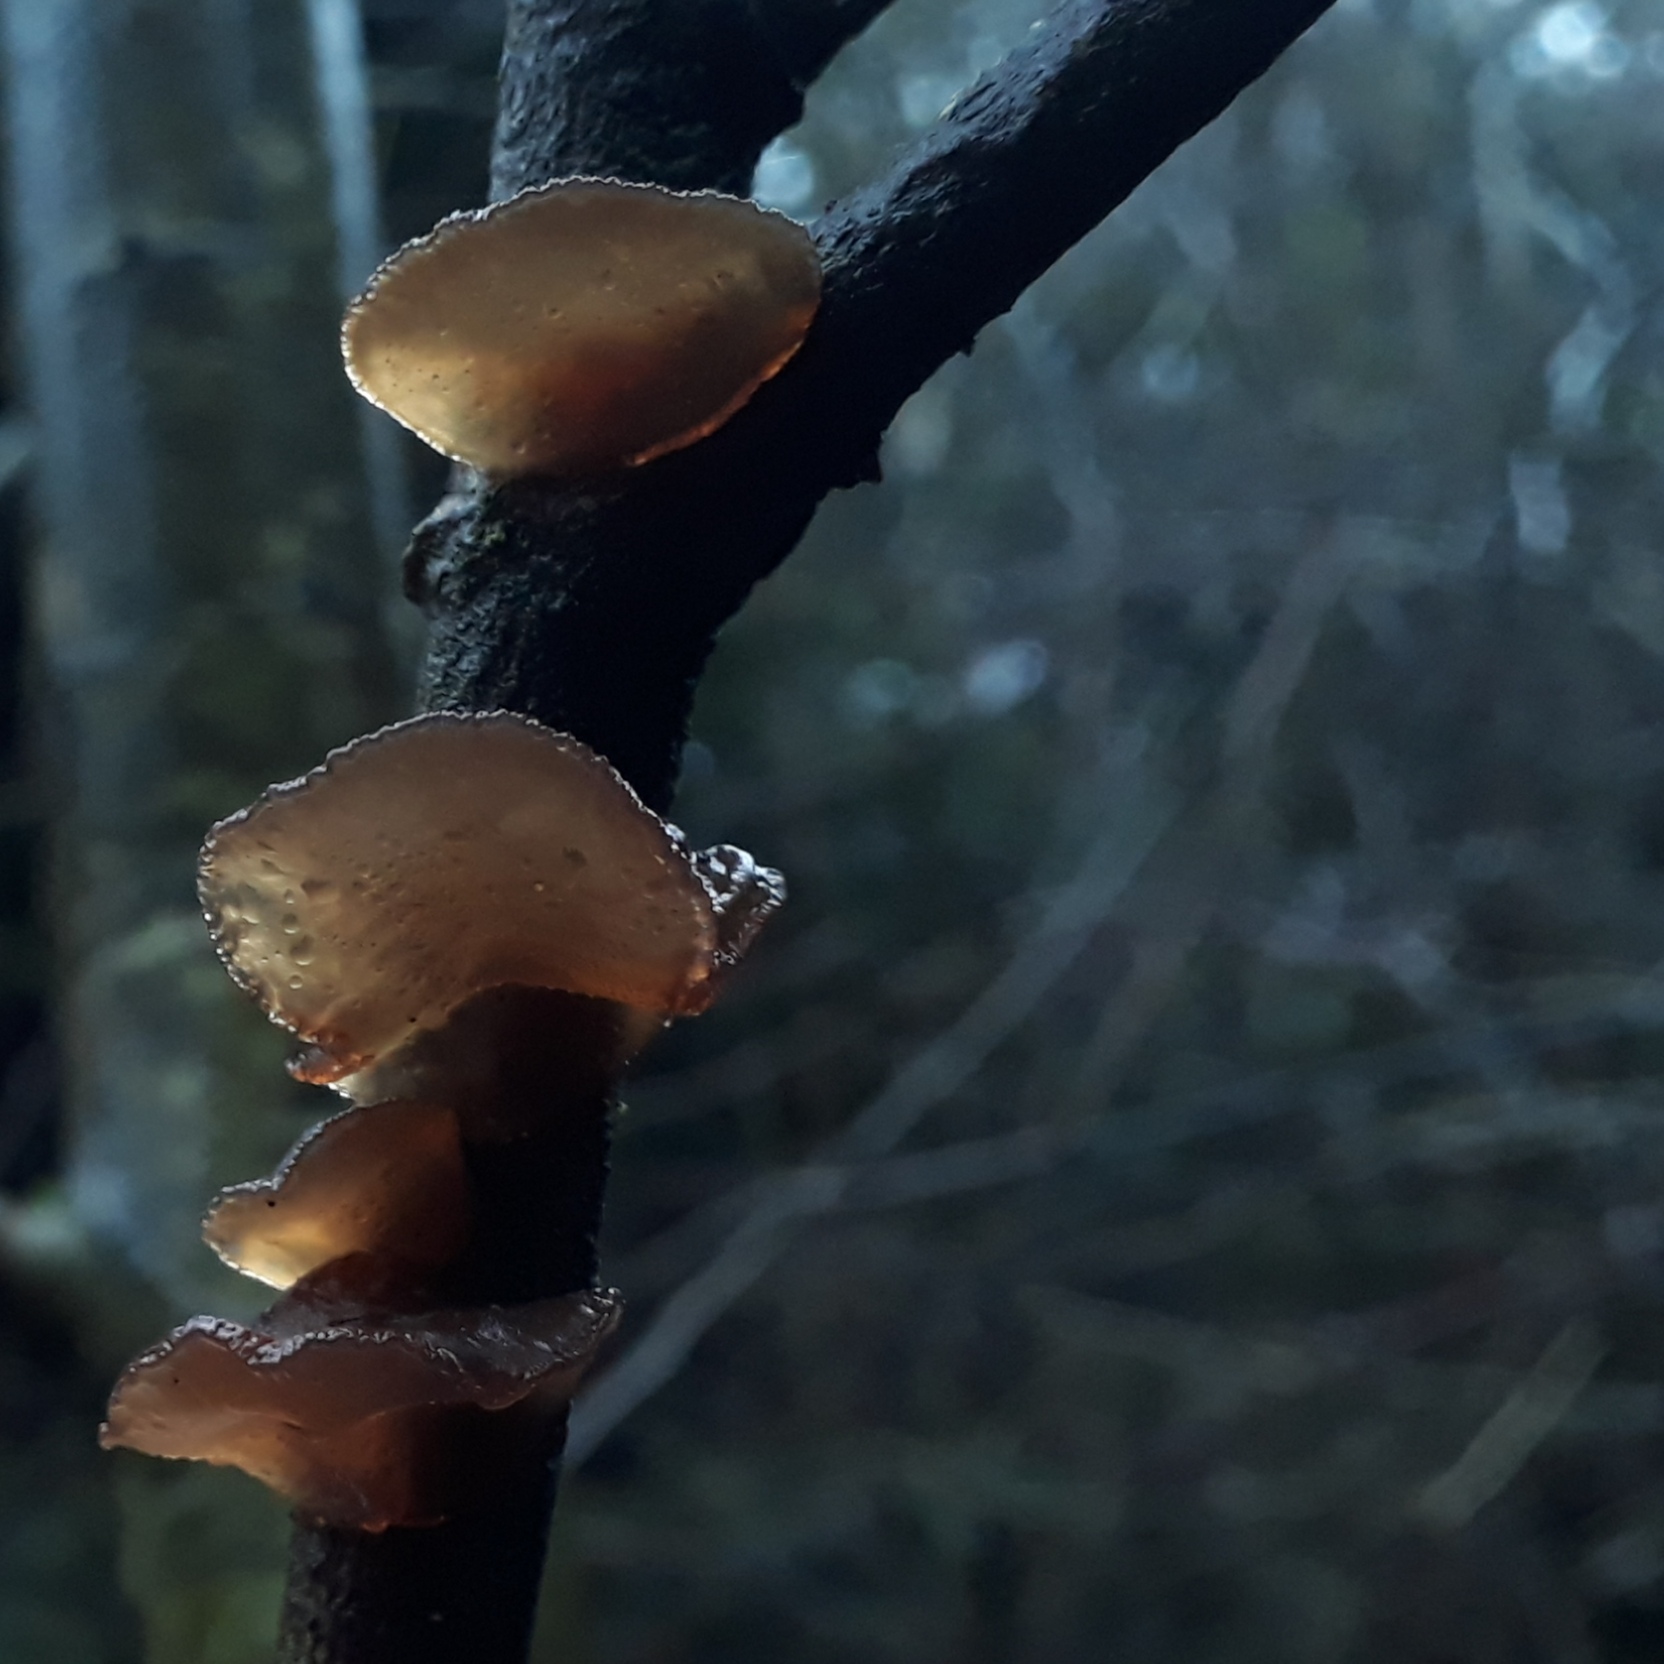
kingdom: Fungi
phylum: Basidiomycota
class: Agaricomycetes
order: Auriculariales
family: Auriculariaceae
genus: Exidia
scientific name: Exidia recisa
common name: pile-bævretop
